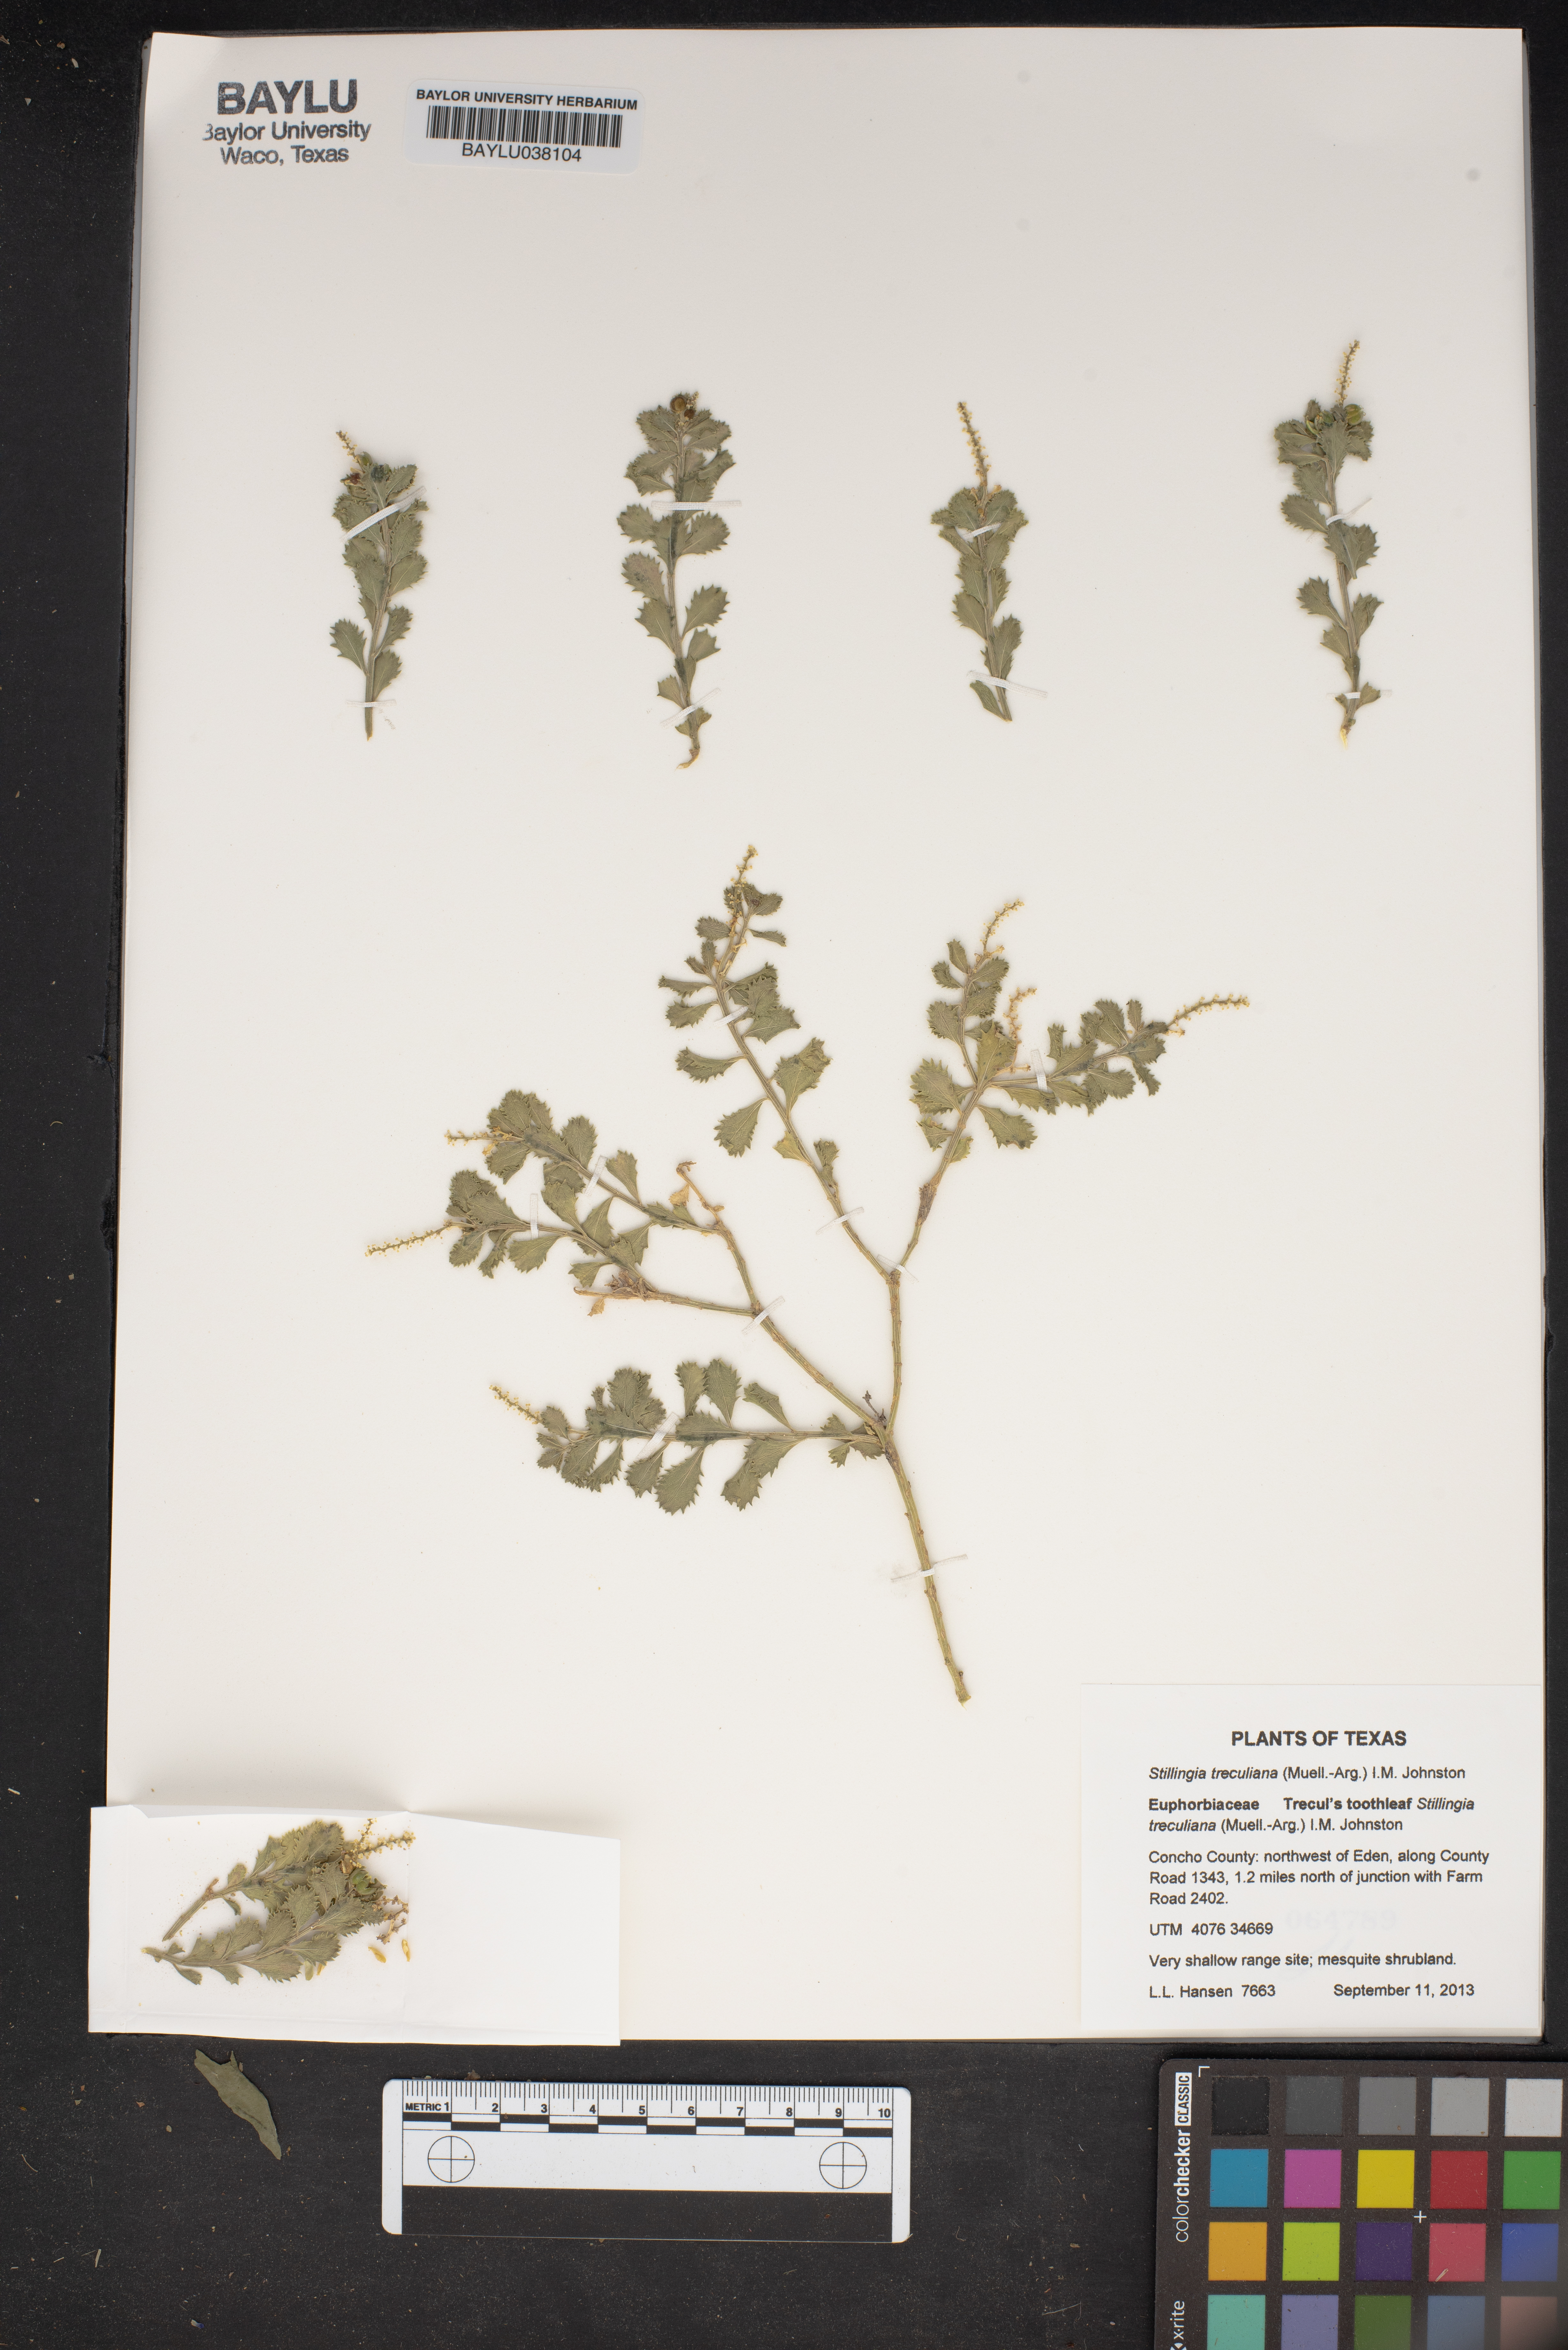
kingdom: Plantae
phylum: Tracheophyta
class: Magnoliopsida
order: Malpighiales
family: Euphorbiaceae
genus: Stillingia
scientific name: Stillingia treculiana
